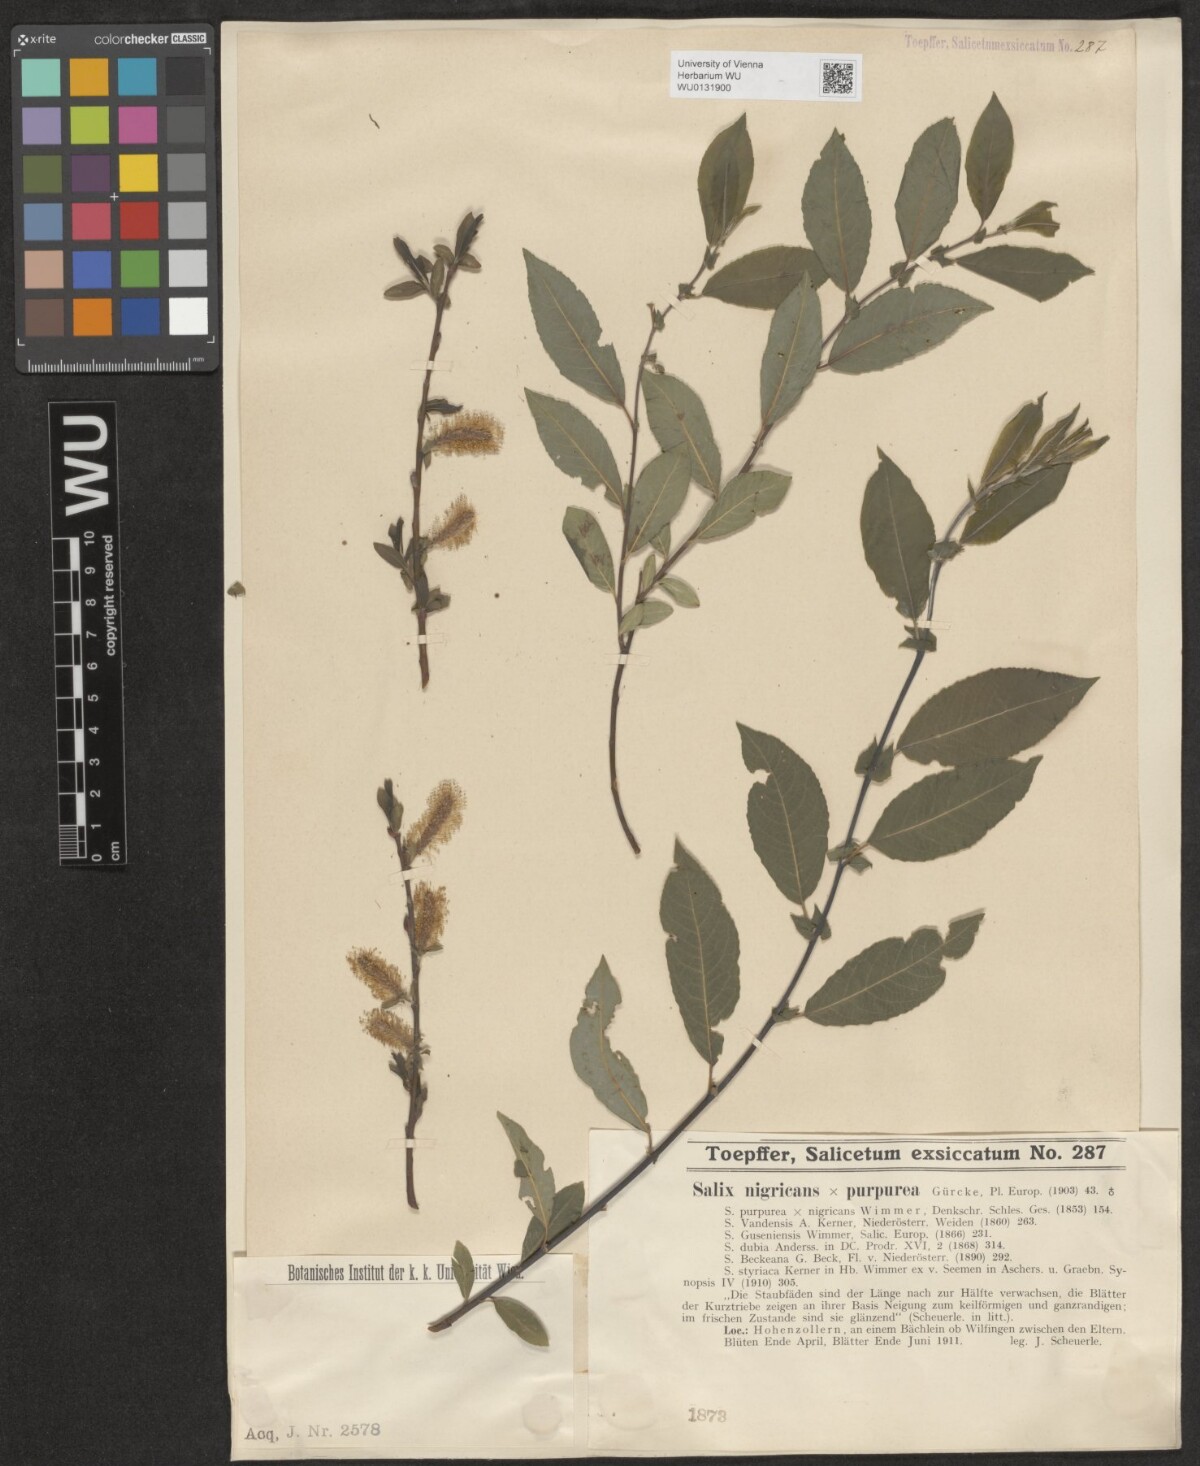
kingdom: Plantae
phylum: Tracheophyta
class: Magnoliopsida
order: Malpighiales
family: Salicaceae
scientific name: Salicaceae
